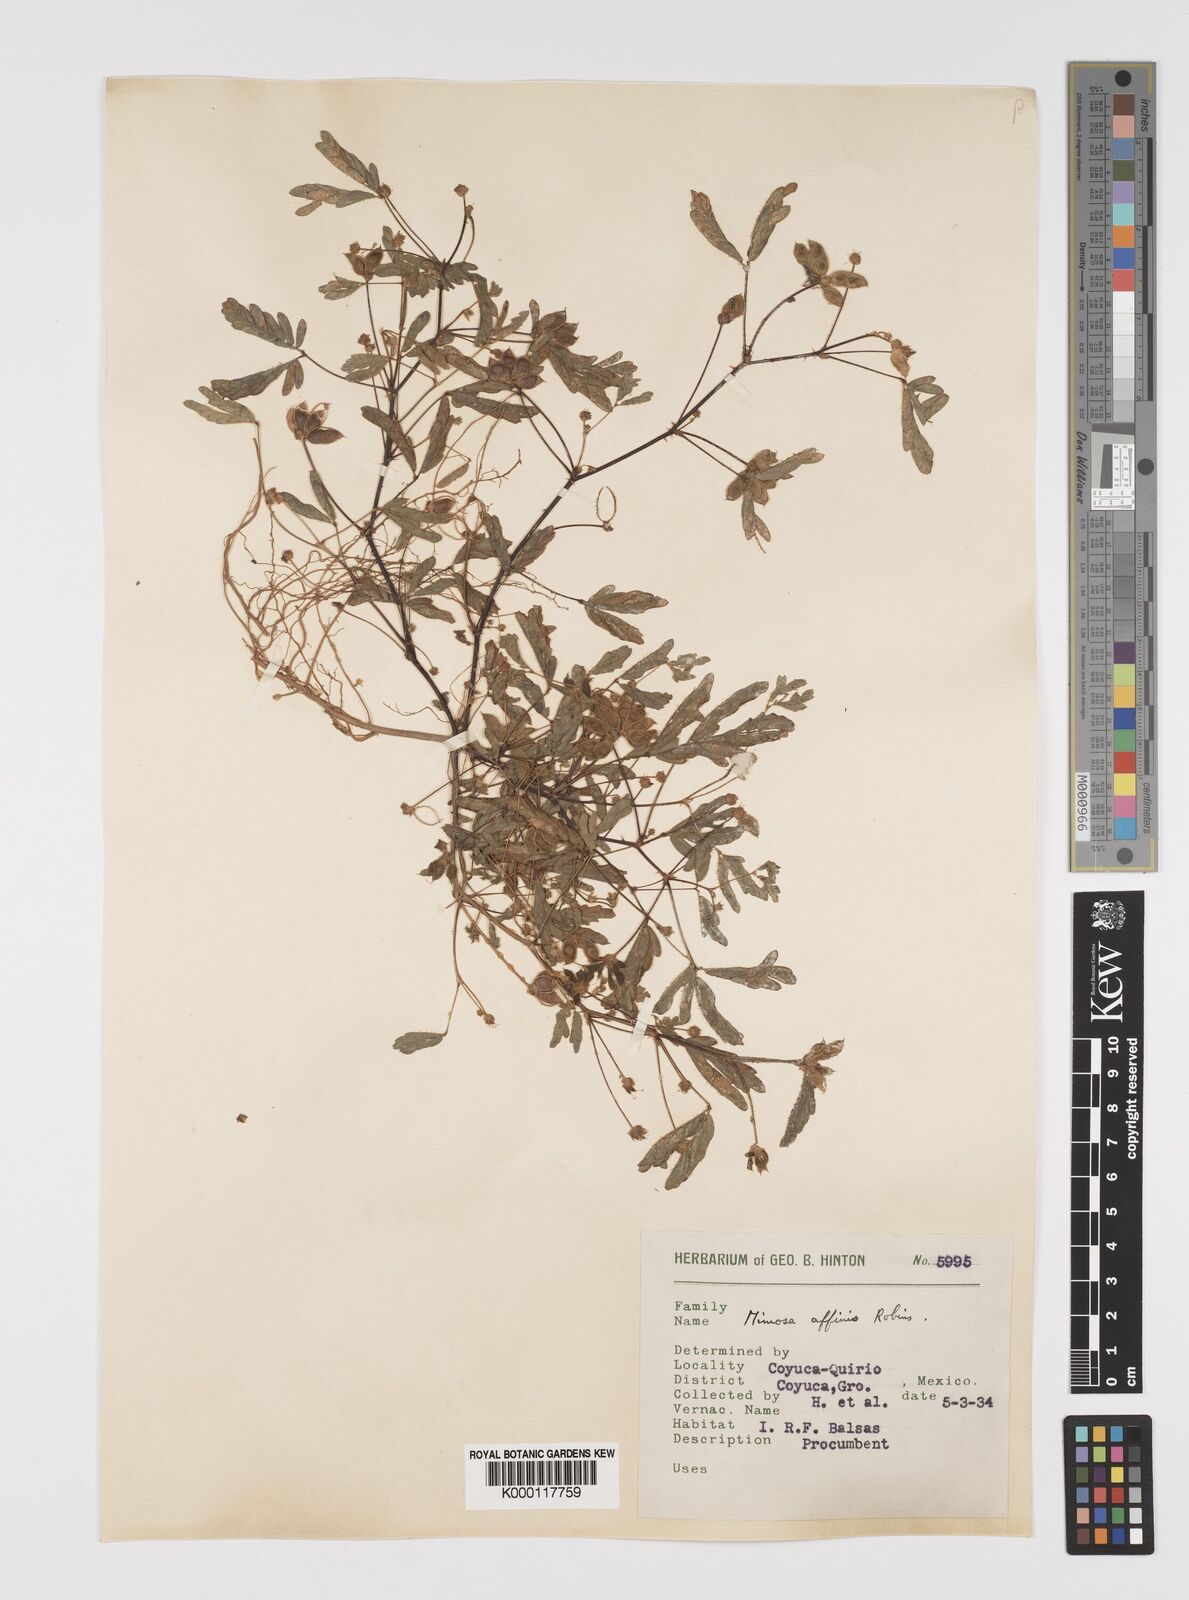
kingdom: Plantae
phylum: Tracheophyta
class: Magnoliopsida
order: Fabales
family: Fabaceae
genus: Mimosa
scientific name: Mimosa affinis
